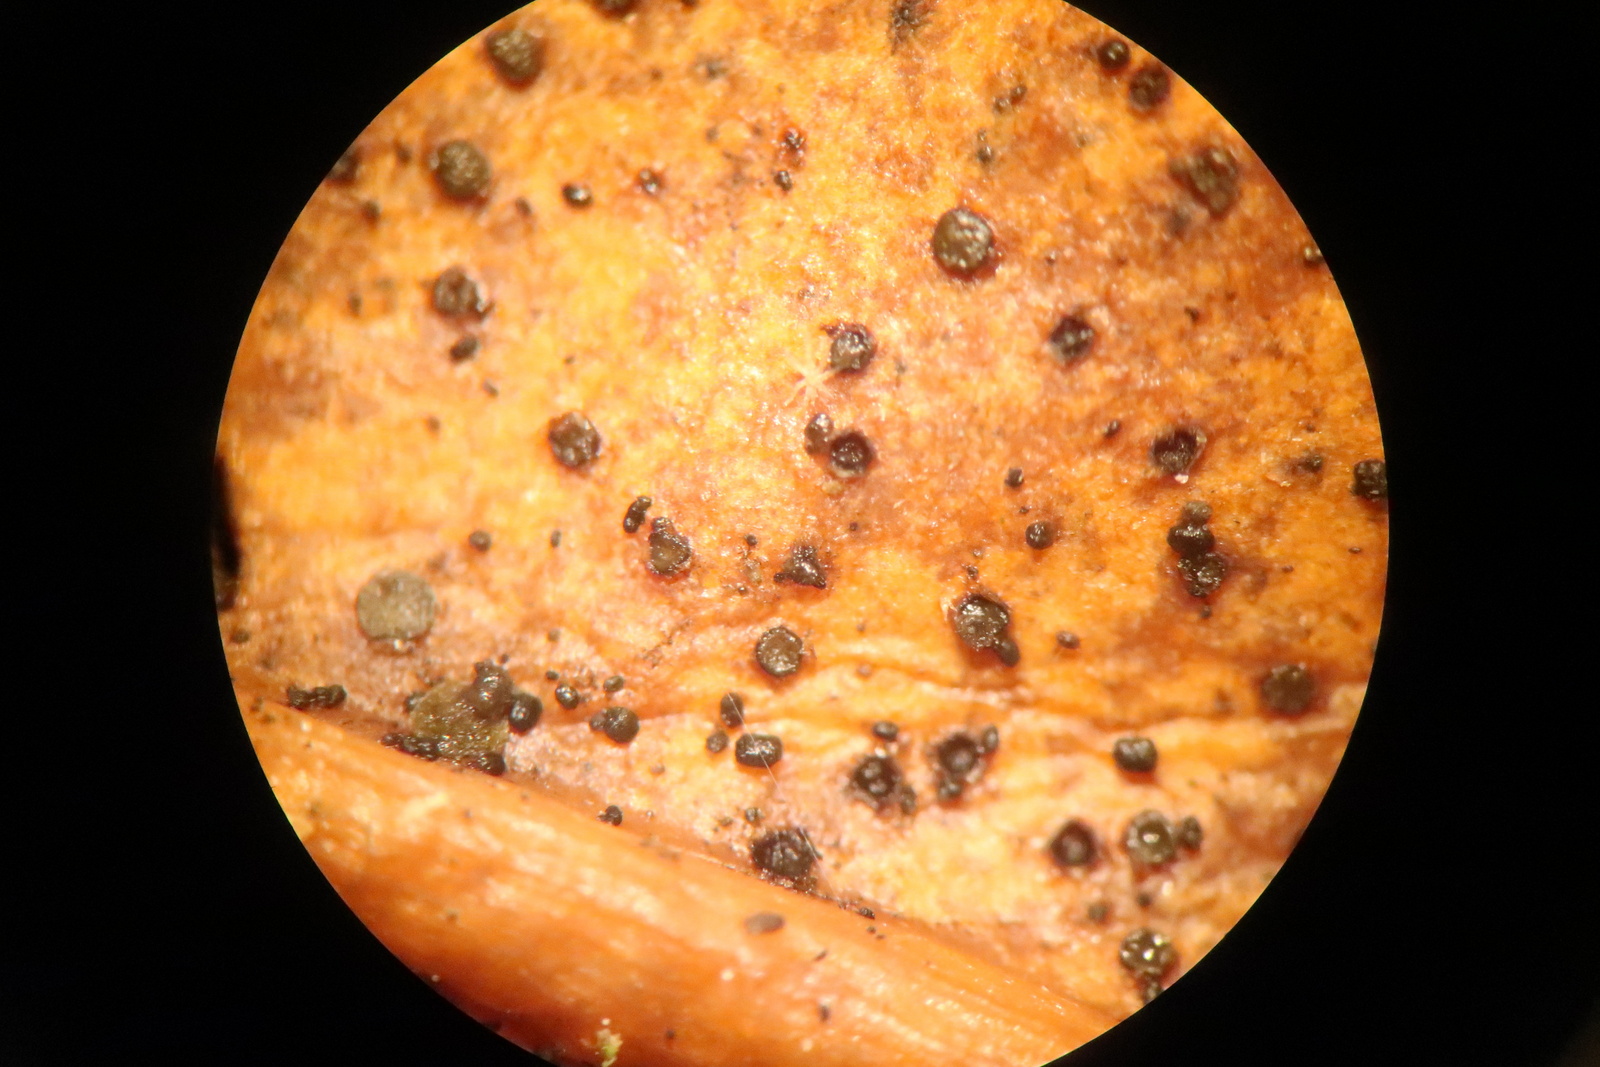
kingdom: Fungi
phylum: Ascomycota
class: Leotiomycetes
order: Helotiales
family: Cenangiaceae
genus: Trochila
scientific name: Trochila laurocerasi
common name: kirsebær-lågskive
